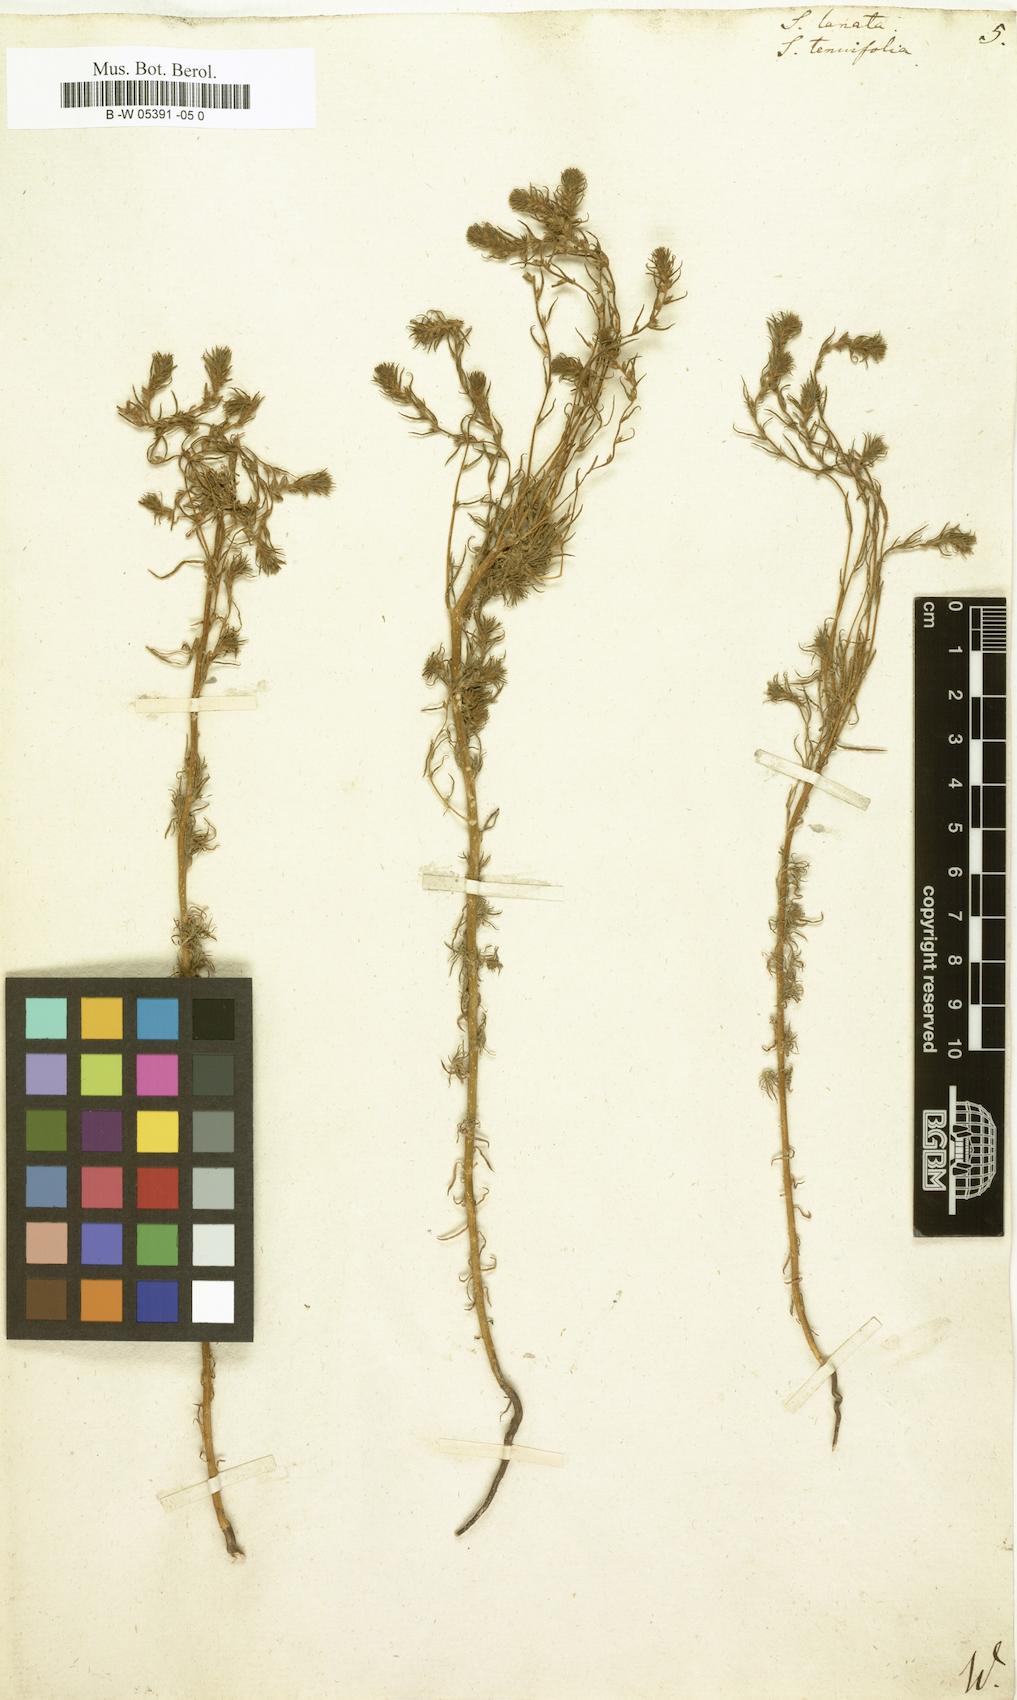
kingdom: Plantae
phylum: Tracheophyta
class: Magnoliopsida
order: Caryophyllales
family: Amaranthaceae
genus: Climacoptera
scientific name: Climacoptera lanata
